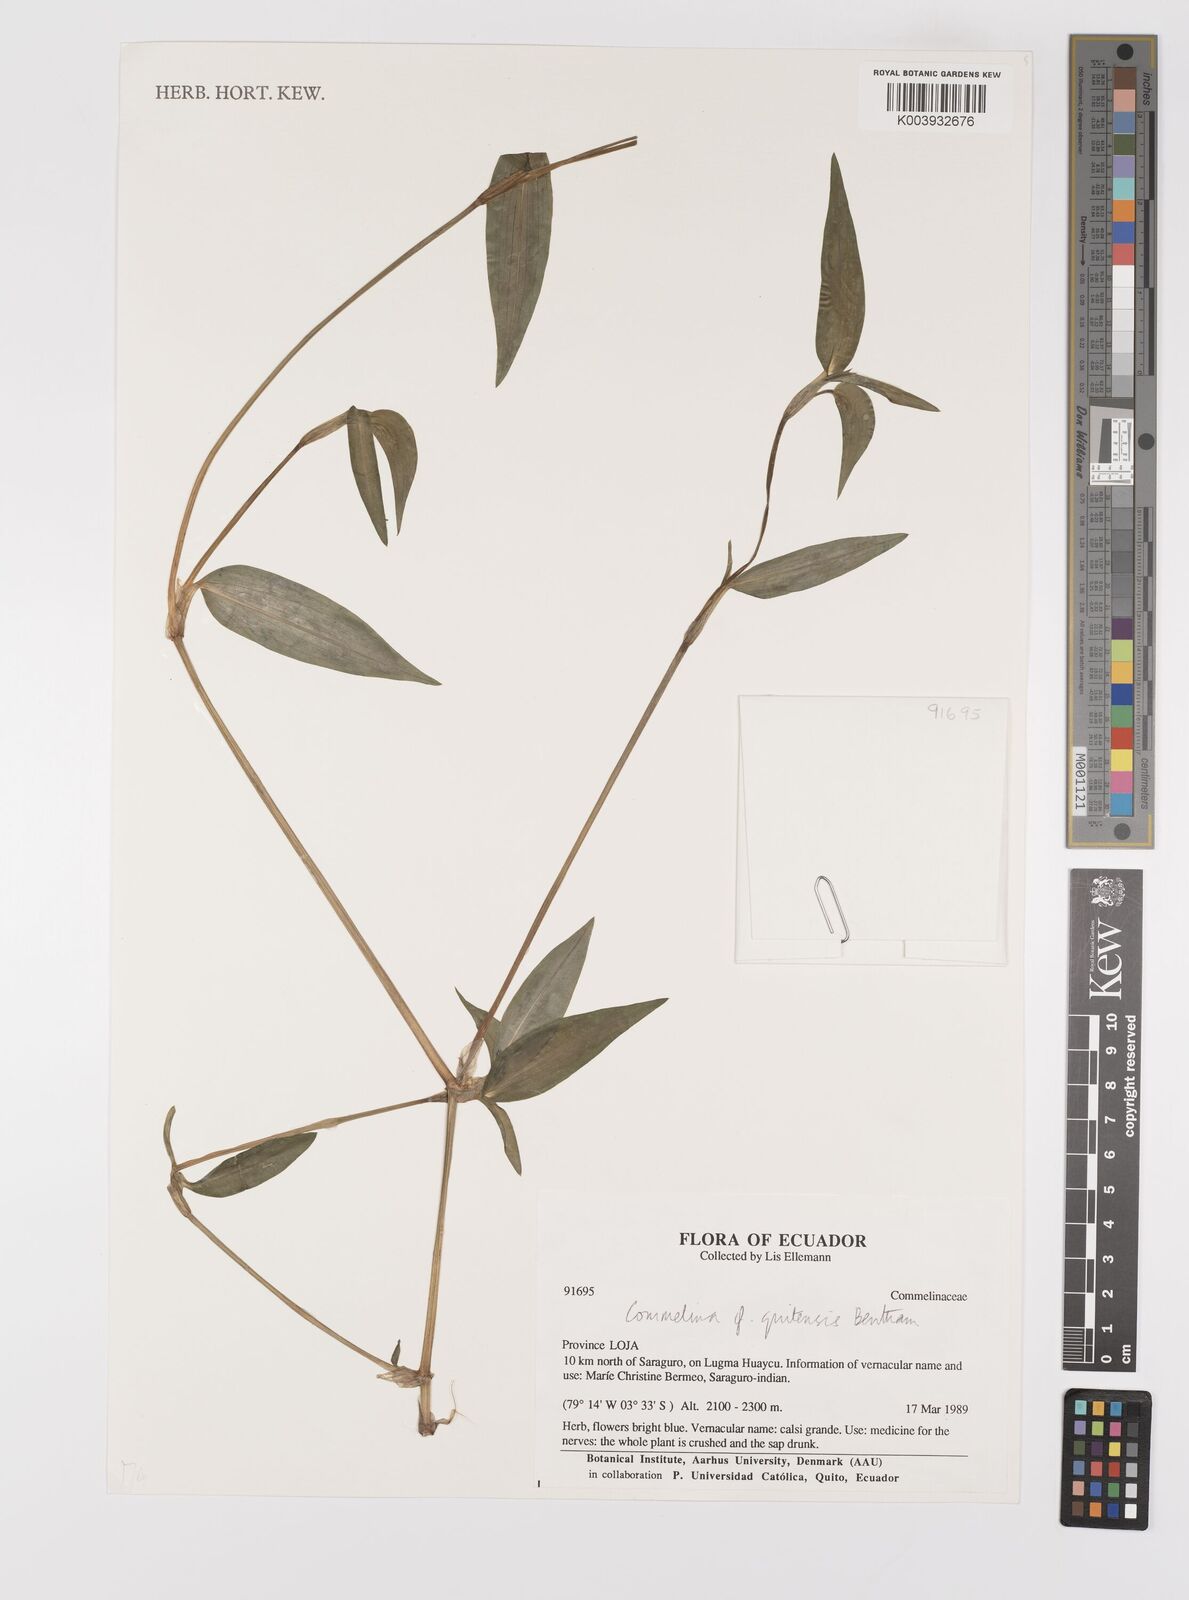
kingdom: Plantae
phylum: Tracheophyta
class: Liliopsida
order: Commelinales
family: Commelinaceae
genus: Commelina
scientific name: Commelina quitensis
